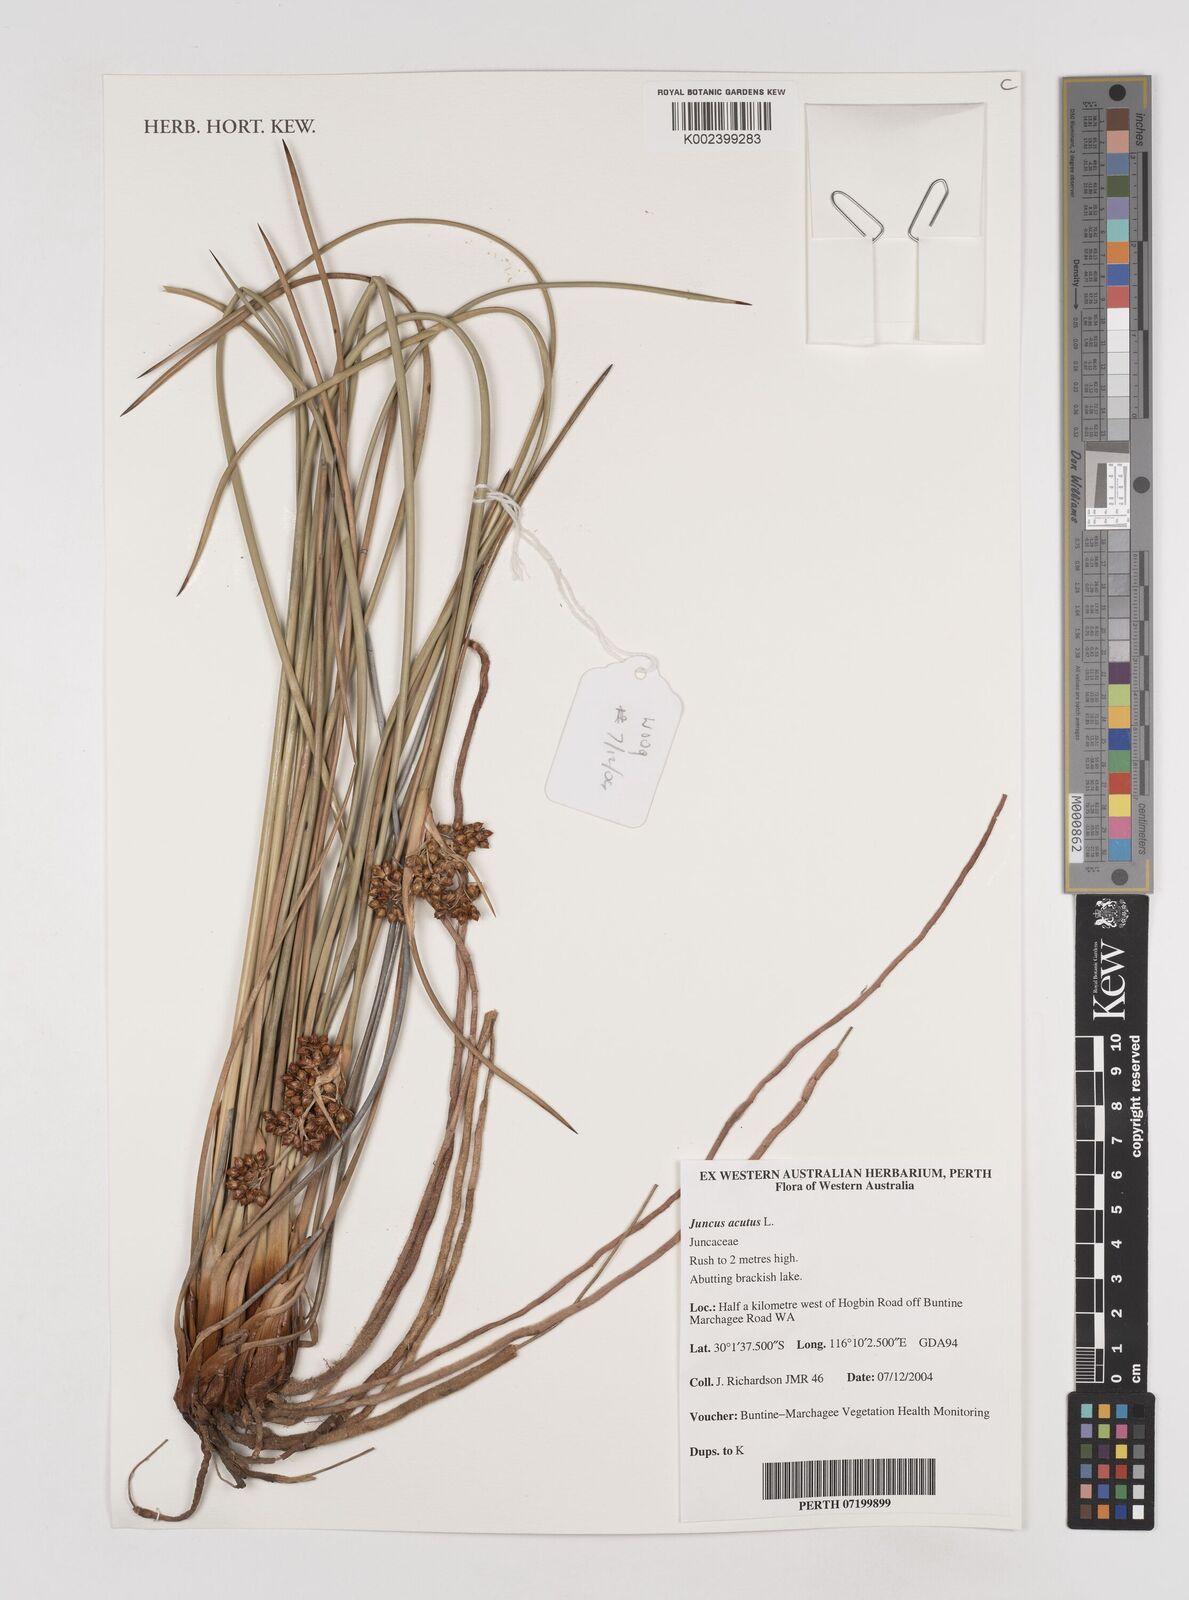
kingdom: Plantae
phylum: Tracheophyta
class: Liliopsida
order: Poales
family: Juncaceae
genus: Juncus
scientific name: Juncus acutus
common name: Sharp rush
